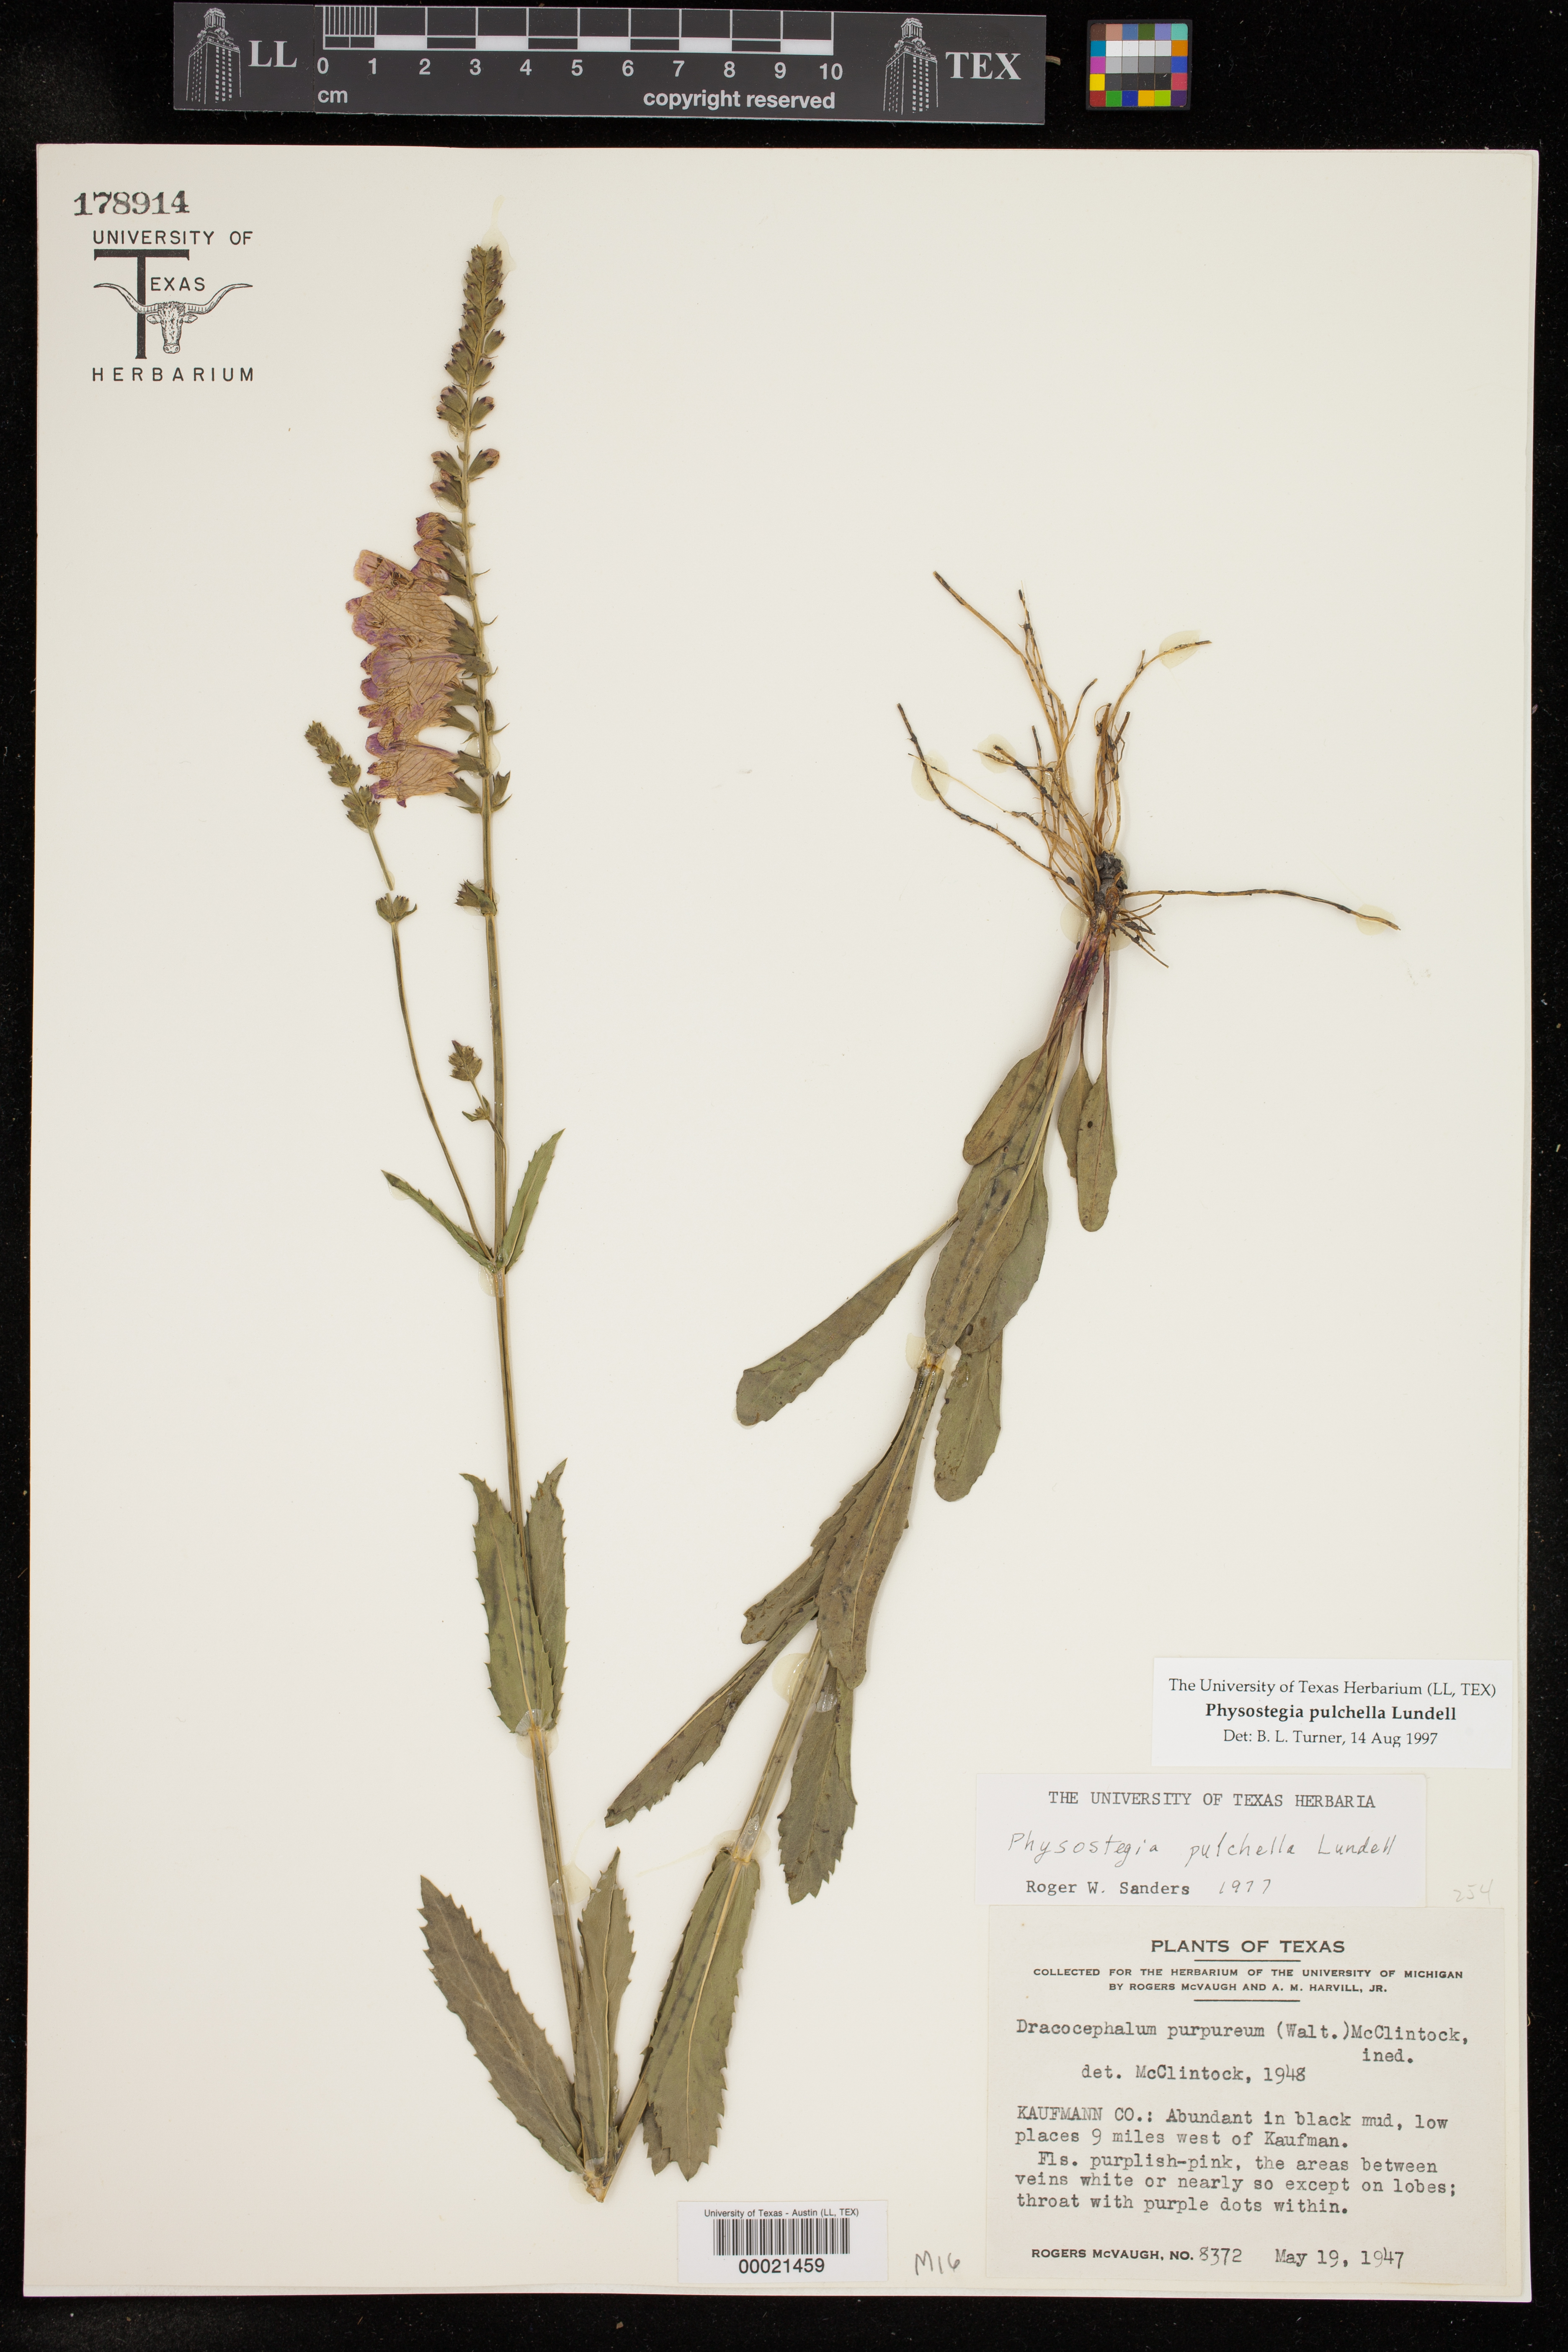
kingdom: Plantae
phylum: Tracheophyta
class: Magnoliopsida
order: Lamiales
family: Lamiaceae
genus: Physostegia
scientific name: Physostegia virginiana
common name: Obedient-plant
